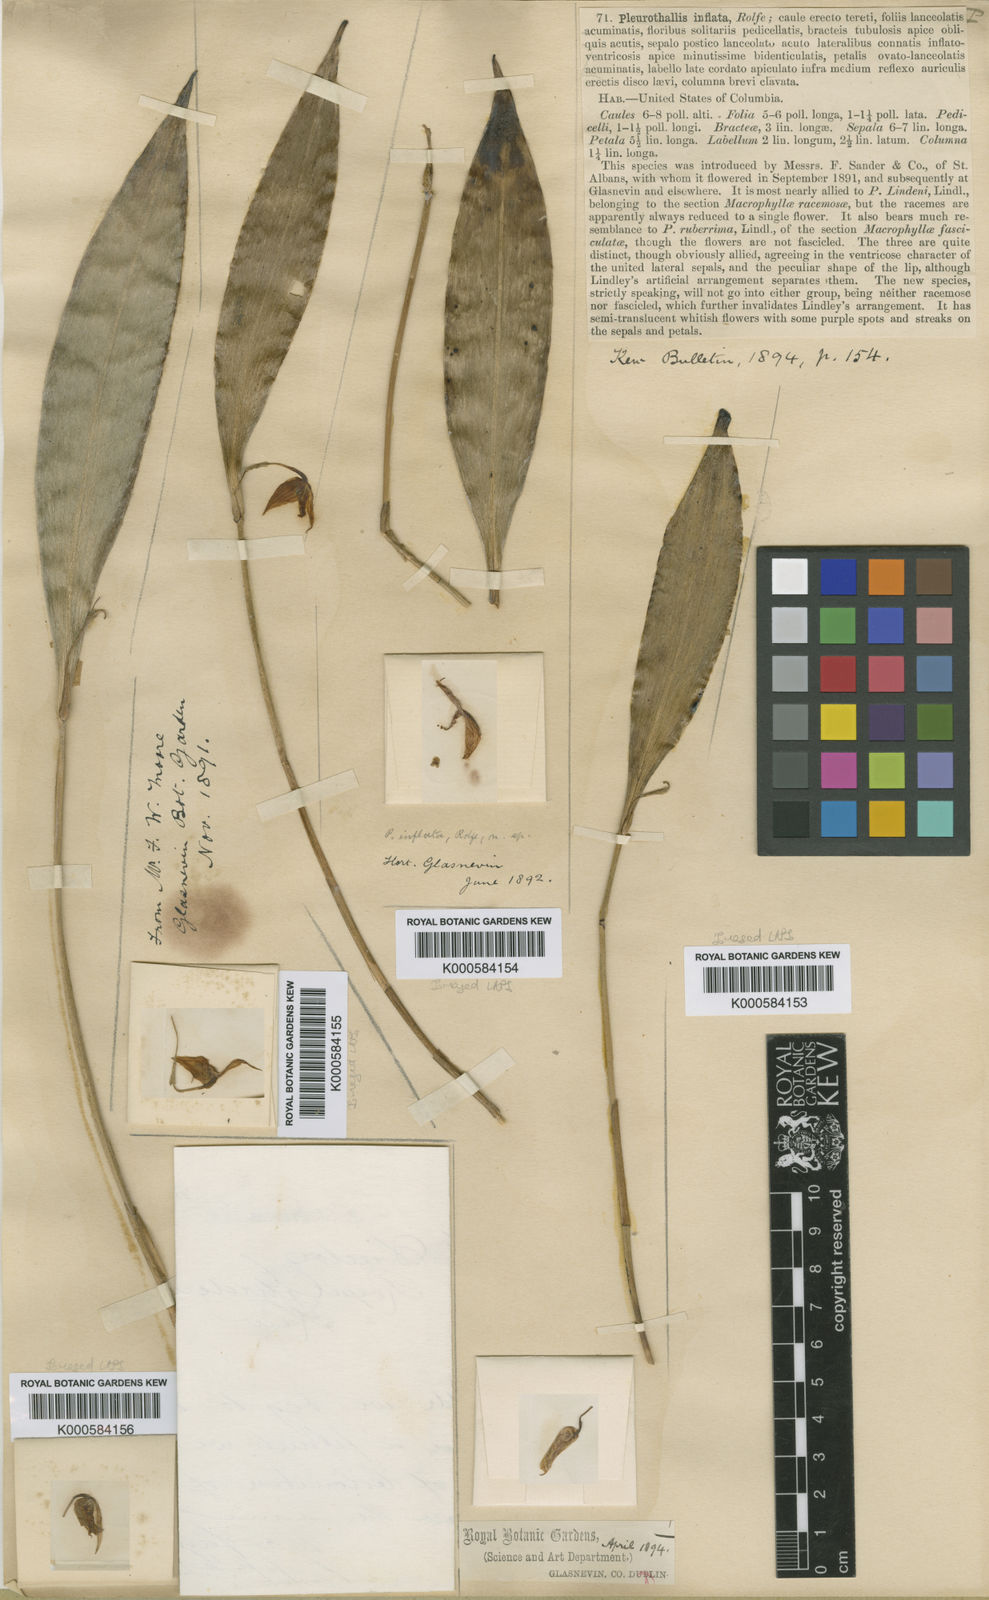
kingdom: Plantae
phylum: Tracheophyta
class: Liliopsida
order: Asparagales
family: Orchidaceae
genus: Pleurothallis
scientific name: Pleurothallis inflata
